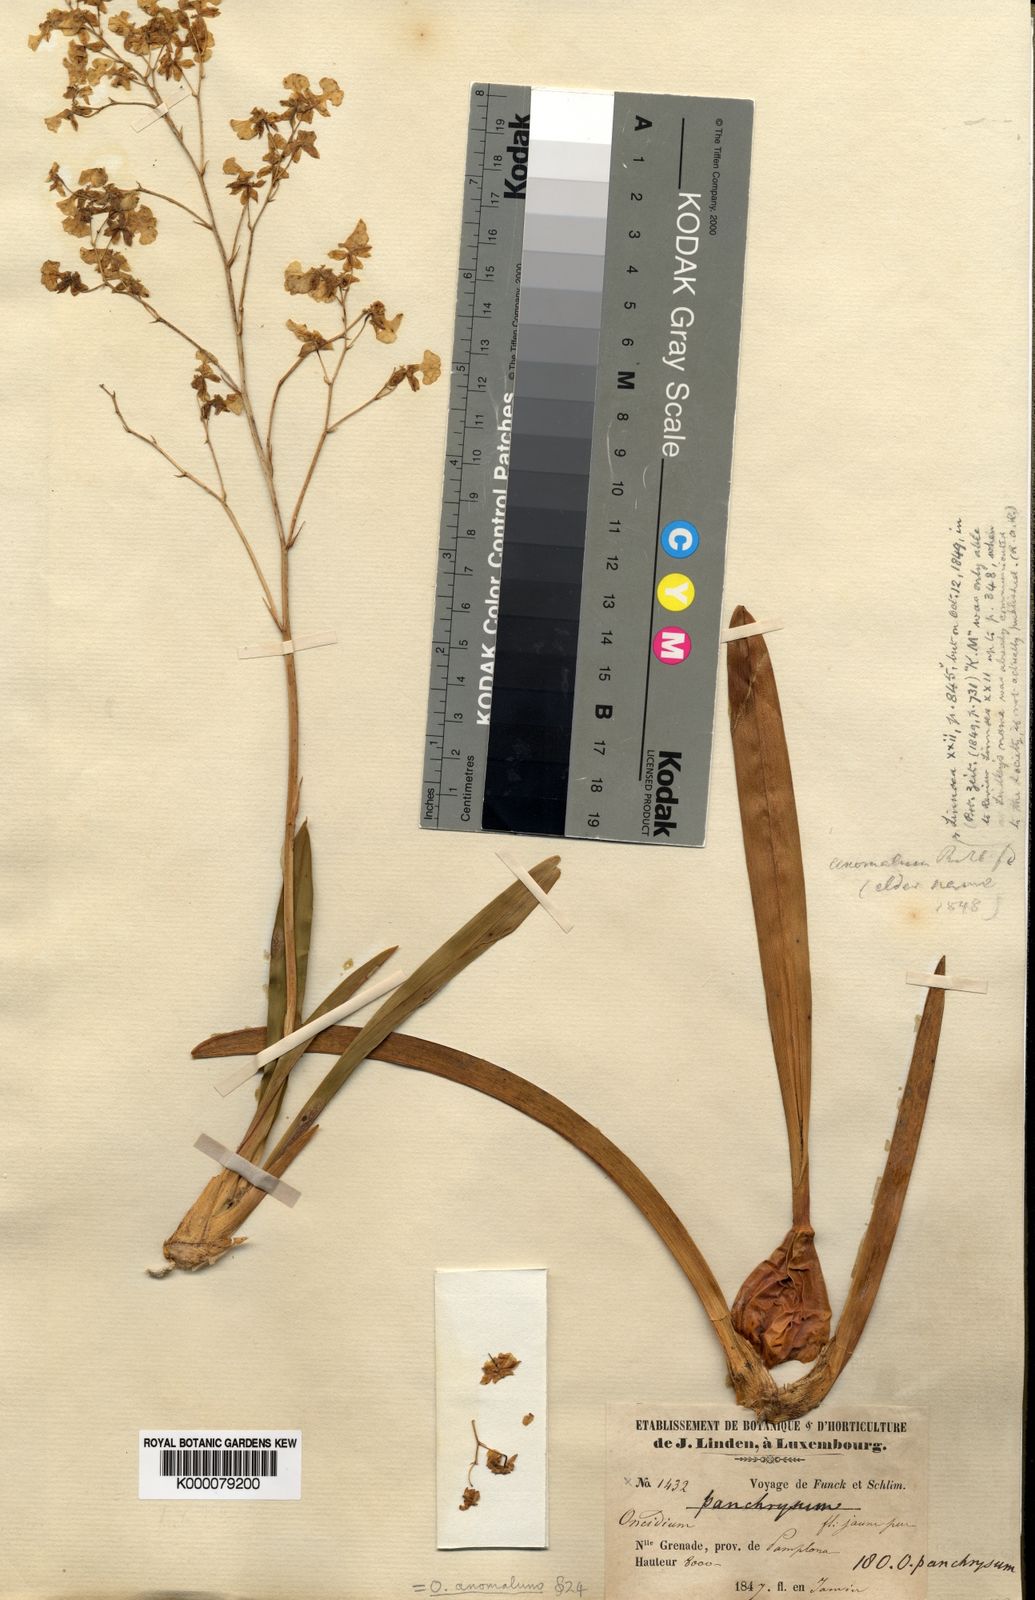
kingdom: Plantae
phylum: Tracheophyta
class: Liliopsida
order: Asparagales
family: Orchidaceae
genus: Oncidium
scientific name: Oncidium panchrysum
